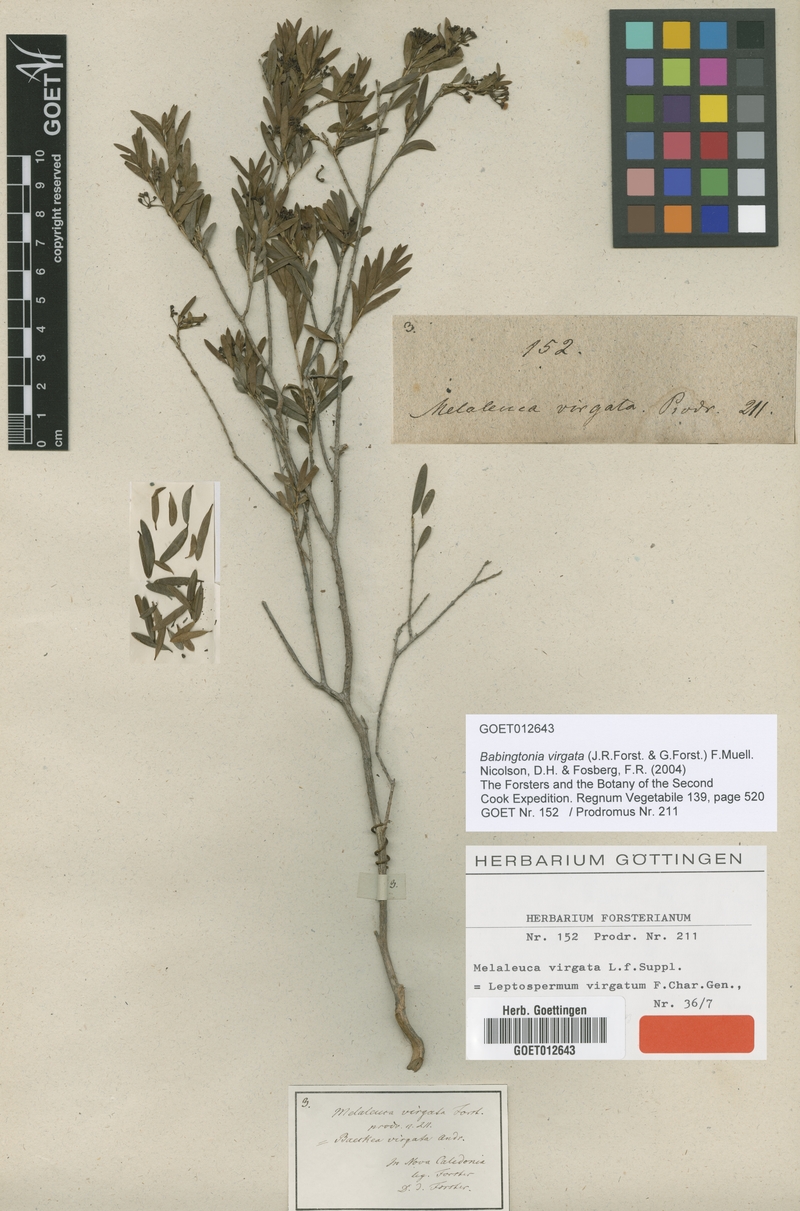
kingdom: Plantae
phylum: Tracheophyta
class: Magnoliopsida
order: Myrtales
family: Myrtaceae
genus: Sannantha
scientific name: Sannantha virgata
